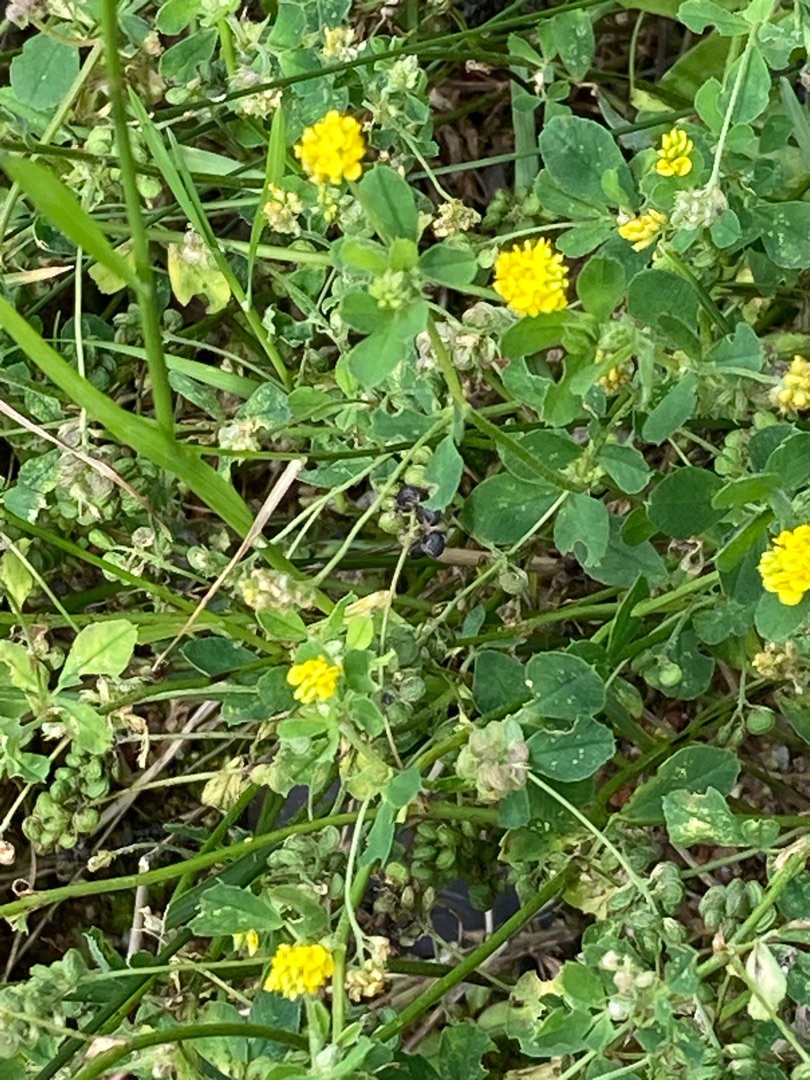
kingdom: Plantae
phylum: Tracheophyta
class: Magnoliopsida
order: Fabales
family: Fabaceae
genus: Medicago
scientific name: Medicago lupulina
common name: Humle-sneglebælg
